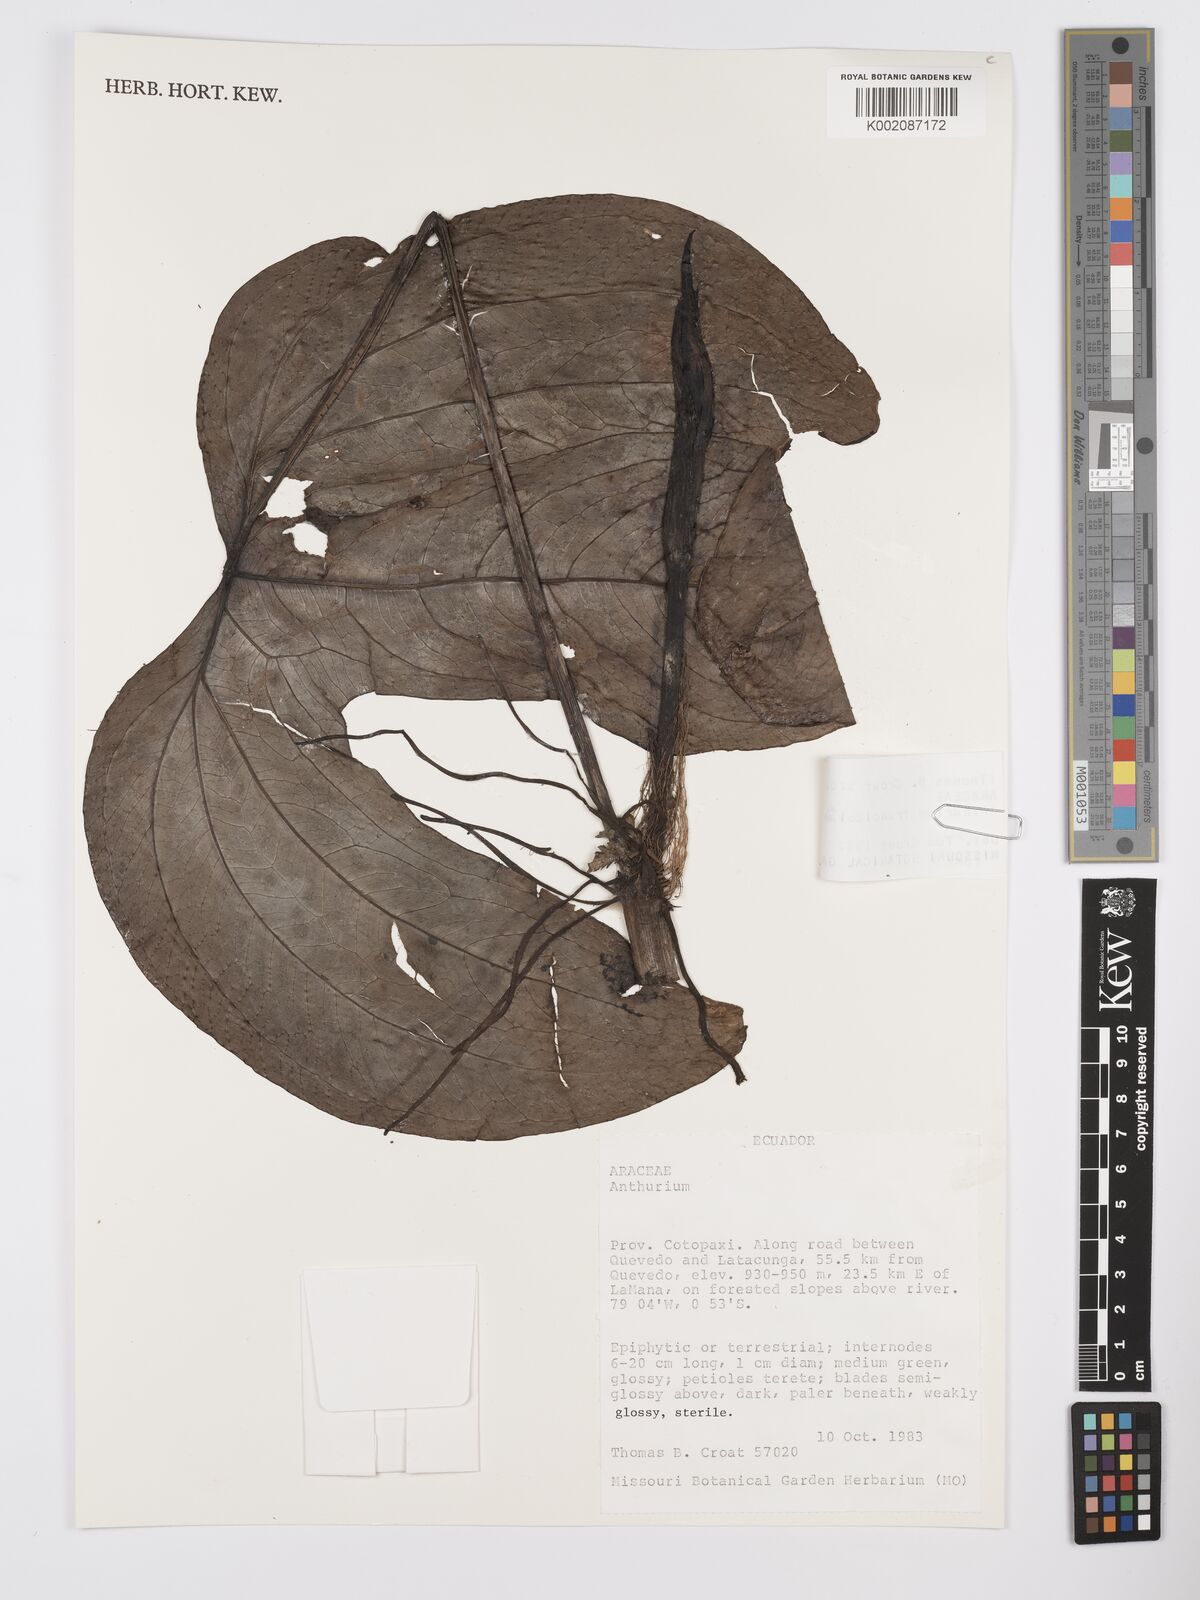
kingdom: Plantae
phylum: Tracheophyta
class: Liliopsida
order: Alismatales
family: Araceae
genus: Anthurium
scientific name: Anthurium truncicola
